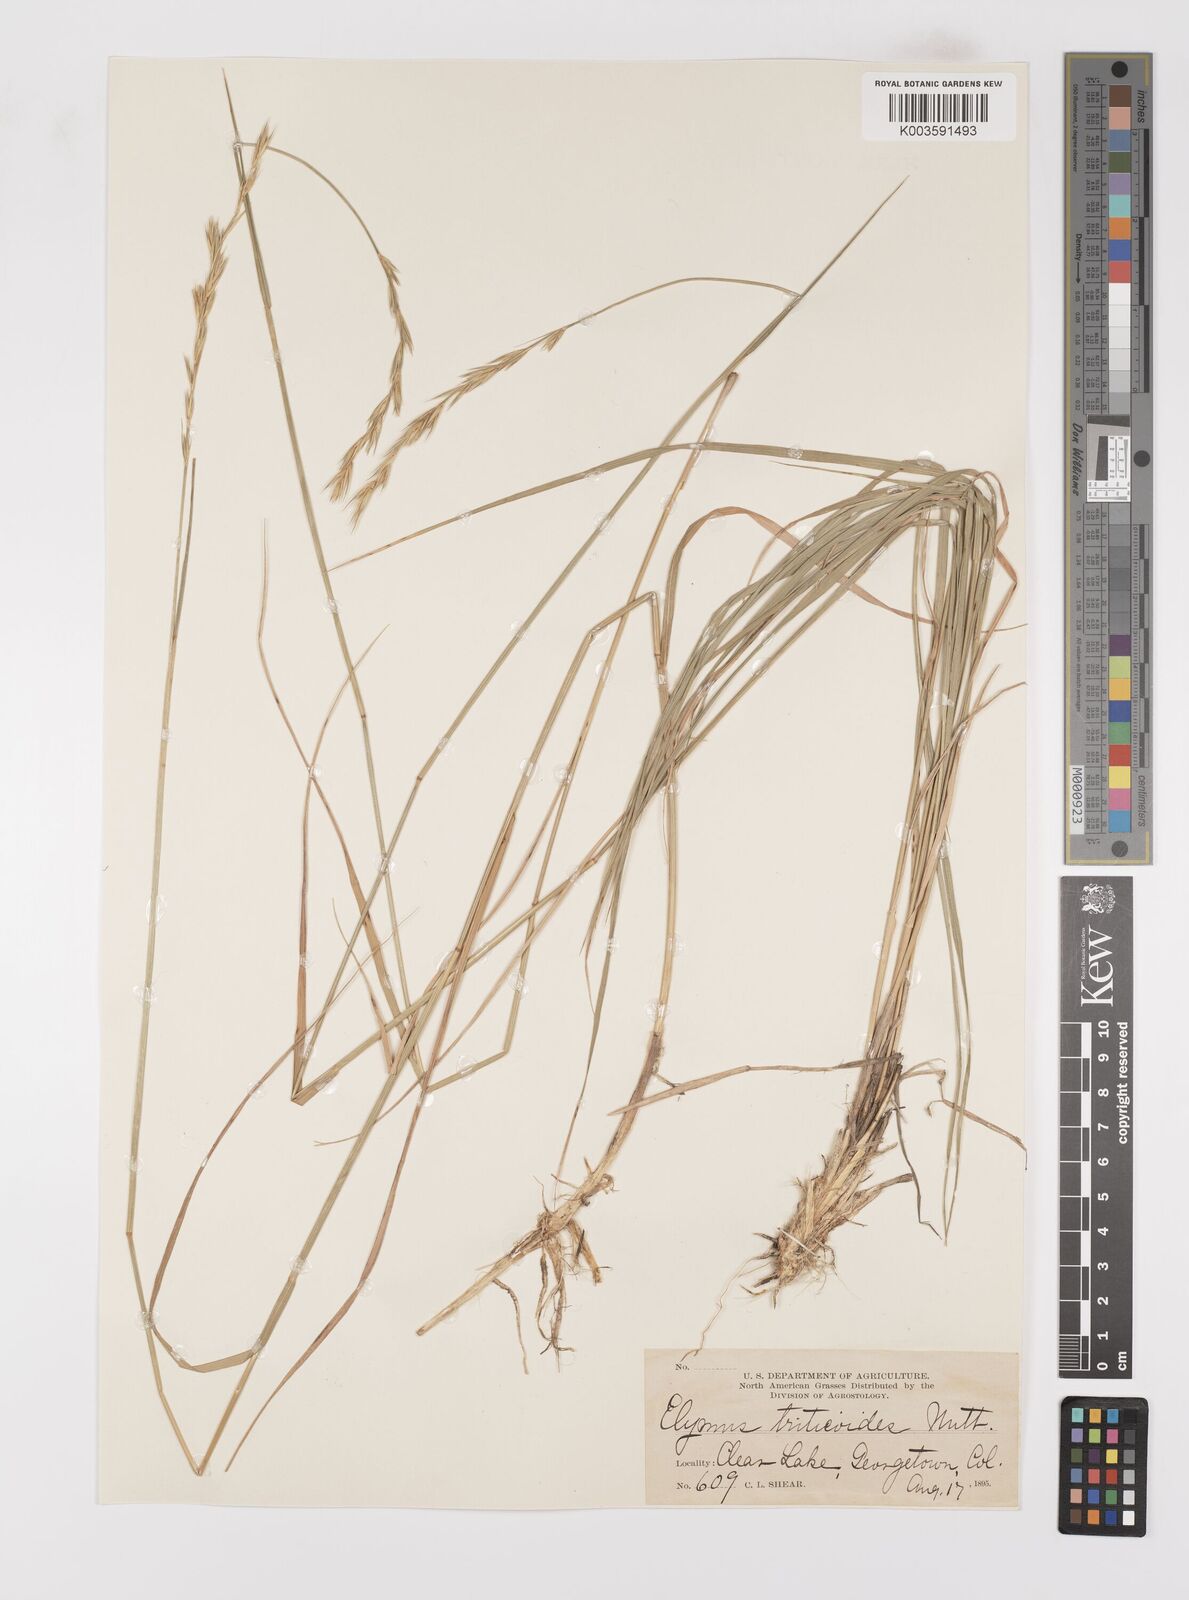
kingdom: Plantae
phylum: Tracheophyta
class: Liliopsida
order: Poales
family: Poaceae
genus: Leymus
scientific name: Leymus triticoides
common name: Beardless wild rye
